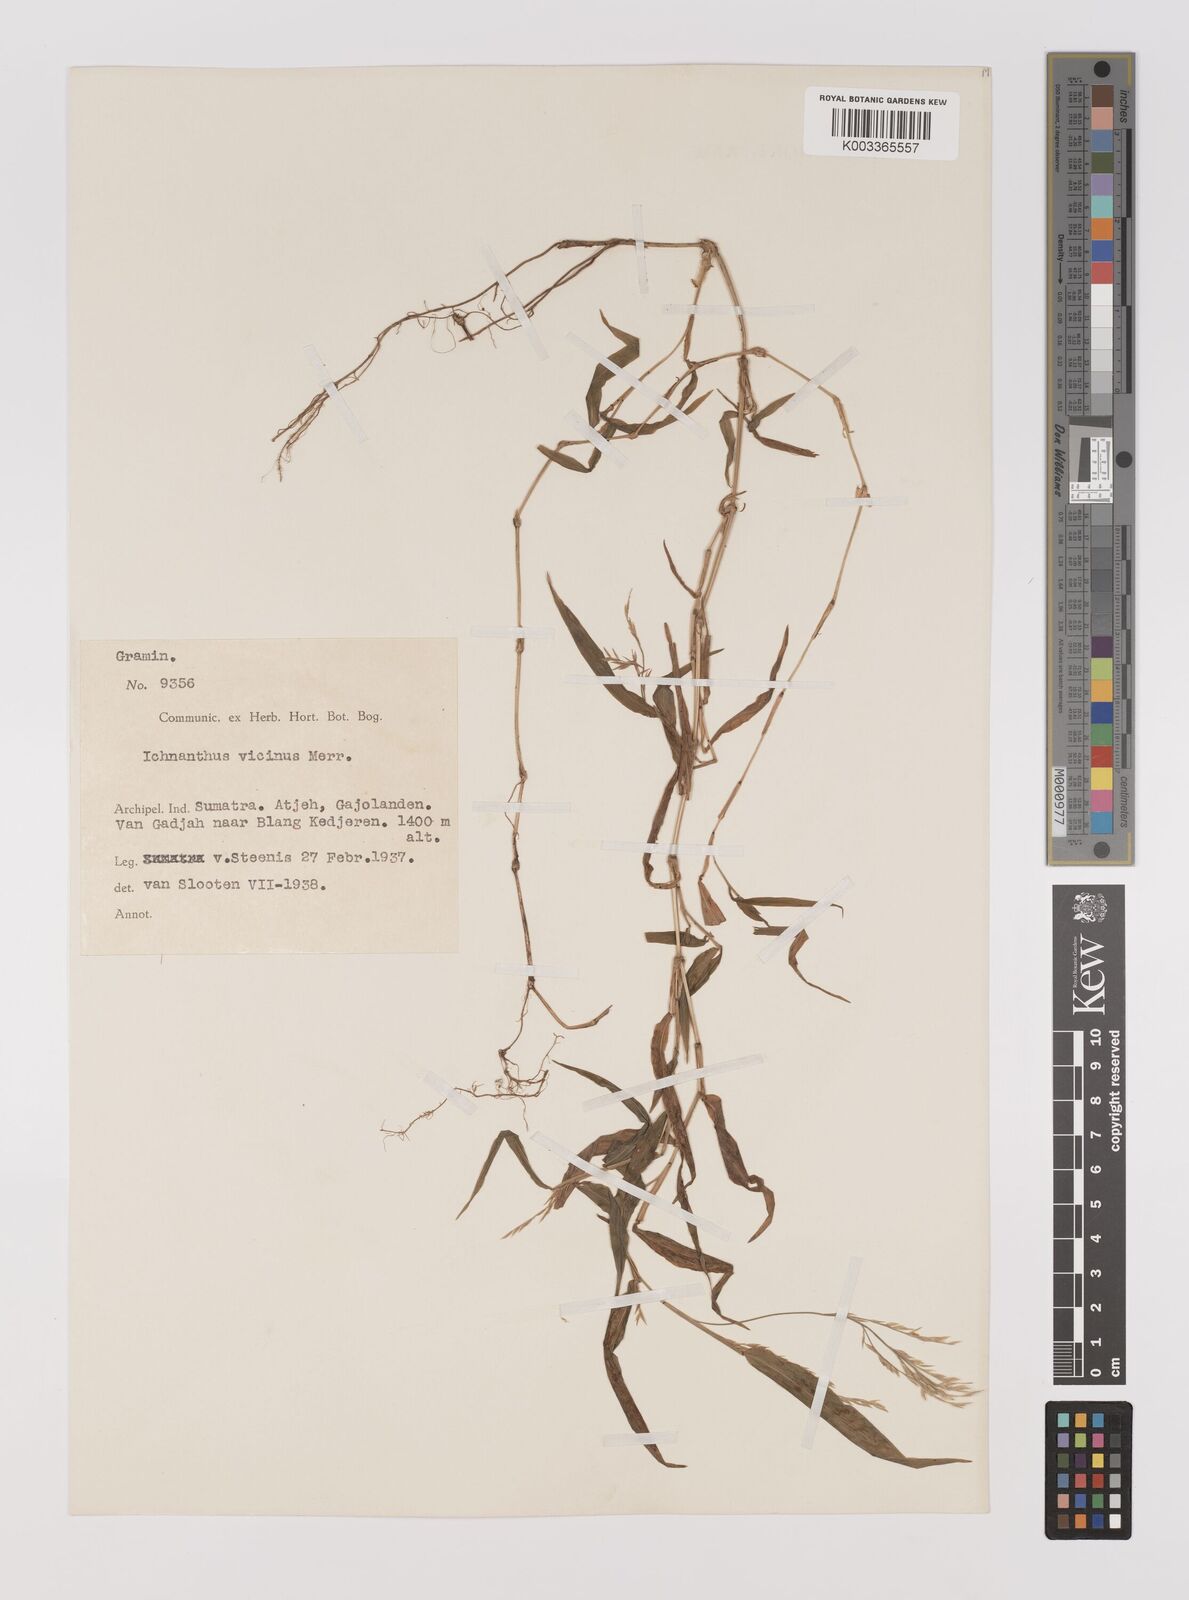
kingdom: Plantae
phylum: Tracheophyta
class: Liliopsida
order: Poales
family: Poaceae
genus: Ichnanthus
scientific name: Ichnanthus pallens
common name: Water grass
